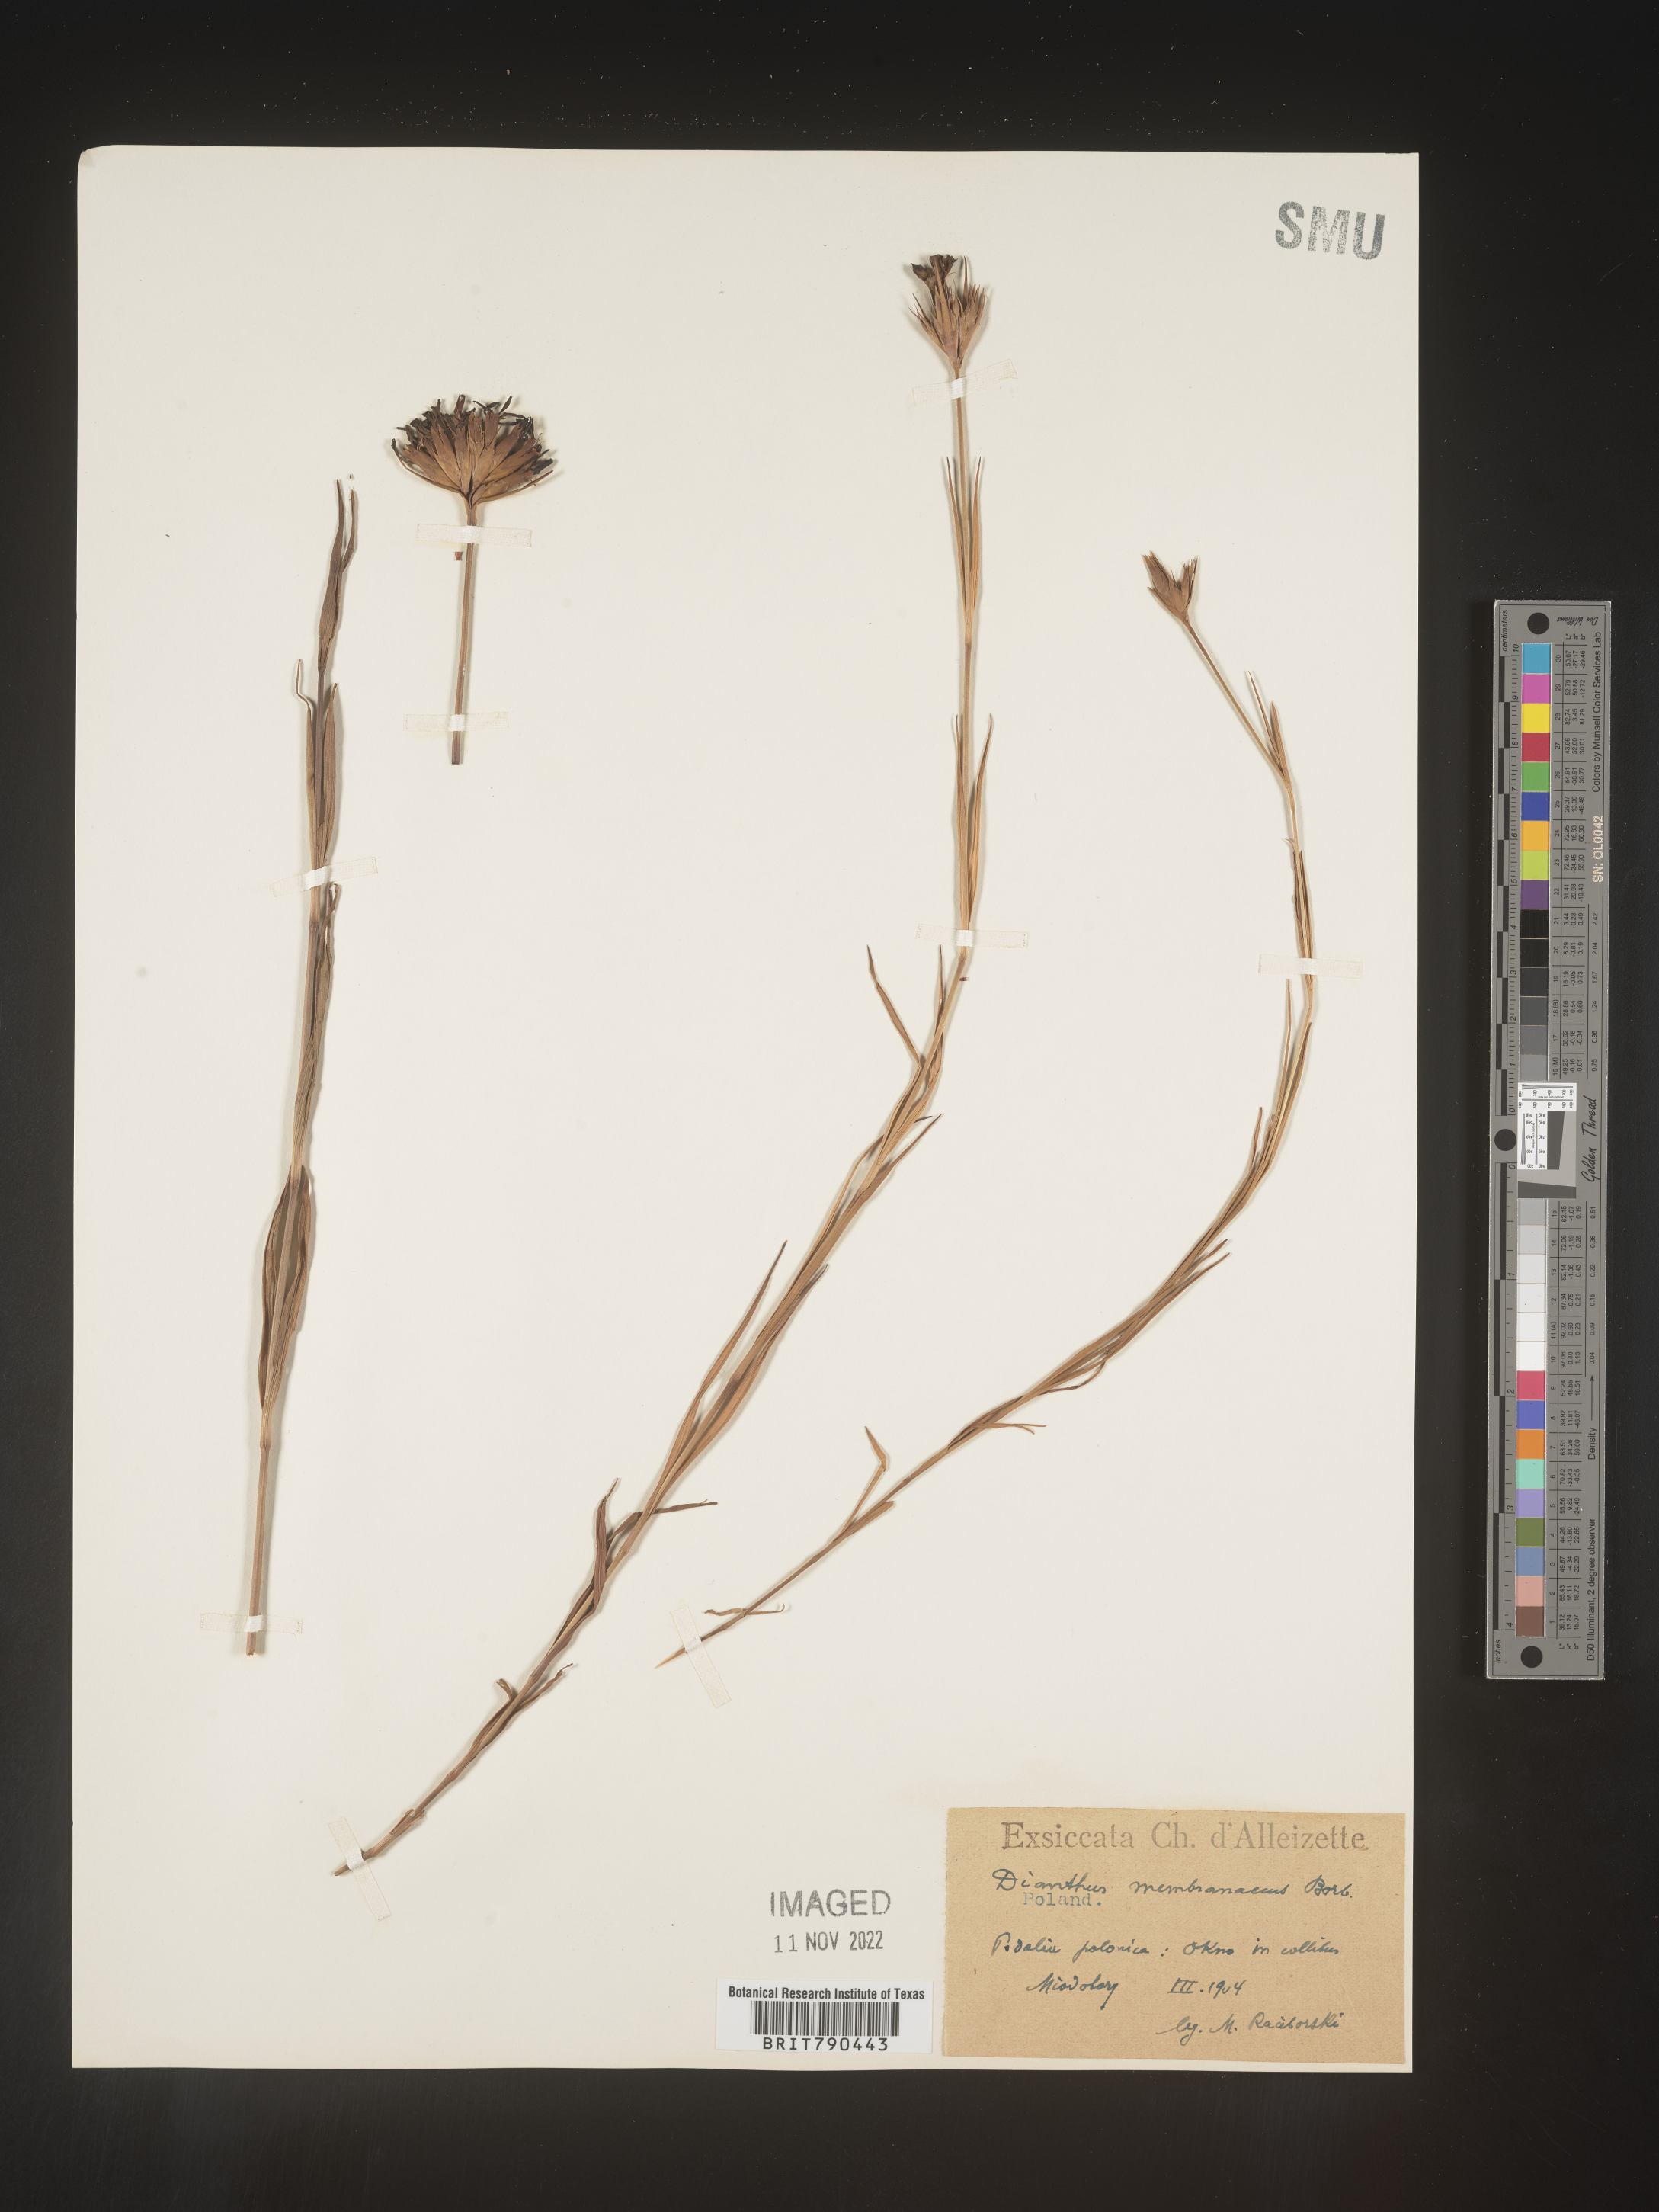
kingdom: Plantae
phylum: Tracheophyta
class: Magnoliopsida
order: Caryophyllales
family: Caryophyllaceae
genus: Dianthus
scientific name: Dianthus
